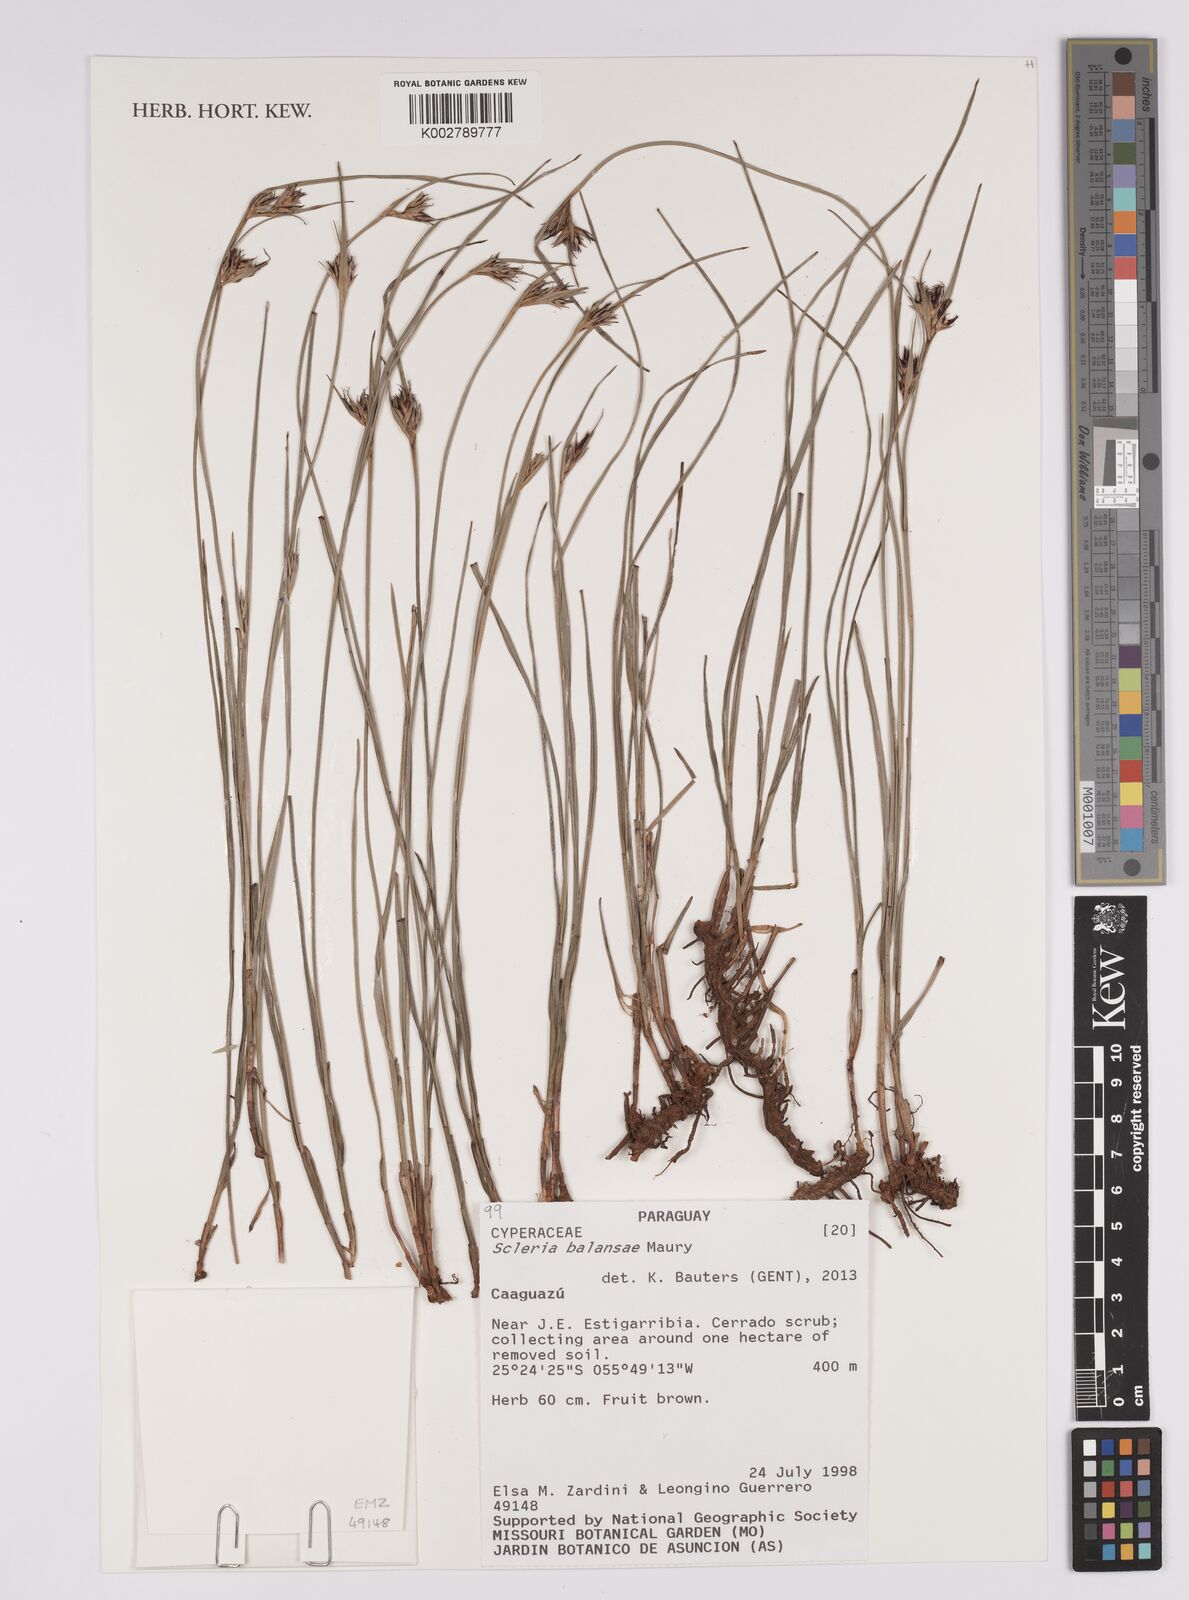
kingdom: Plantae
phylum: Tracheophyta
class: Liliopsida
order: Poales
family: Cyperaceae
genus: Scleria
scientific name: Scleria balansae
